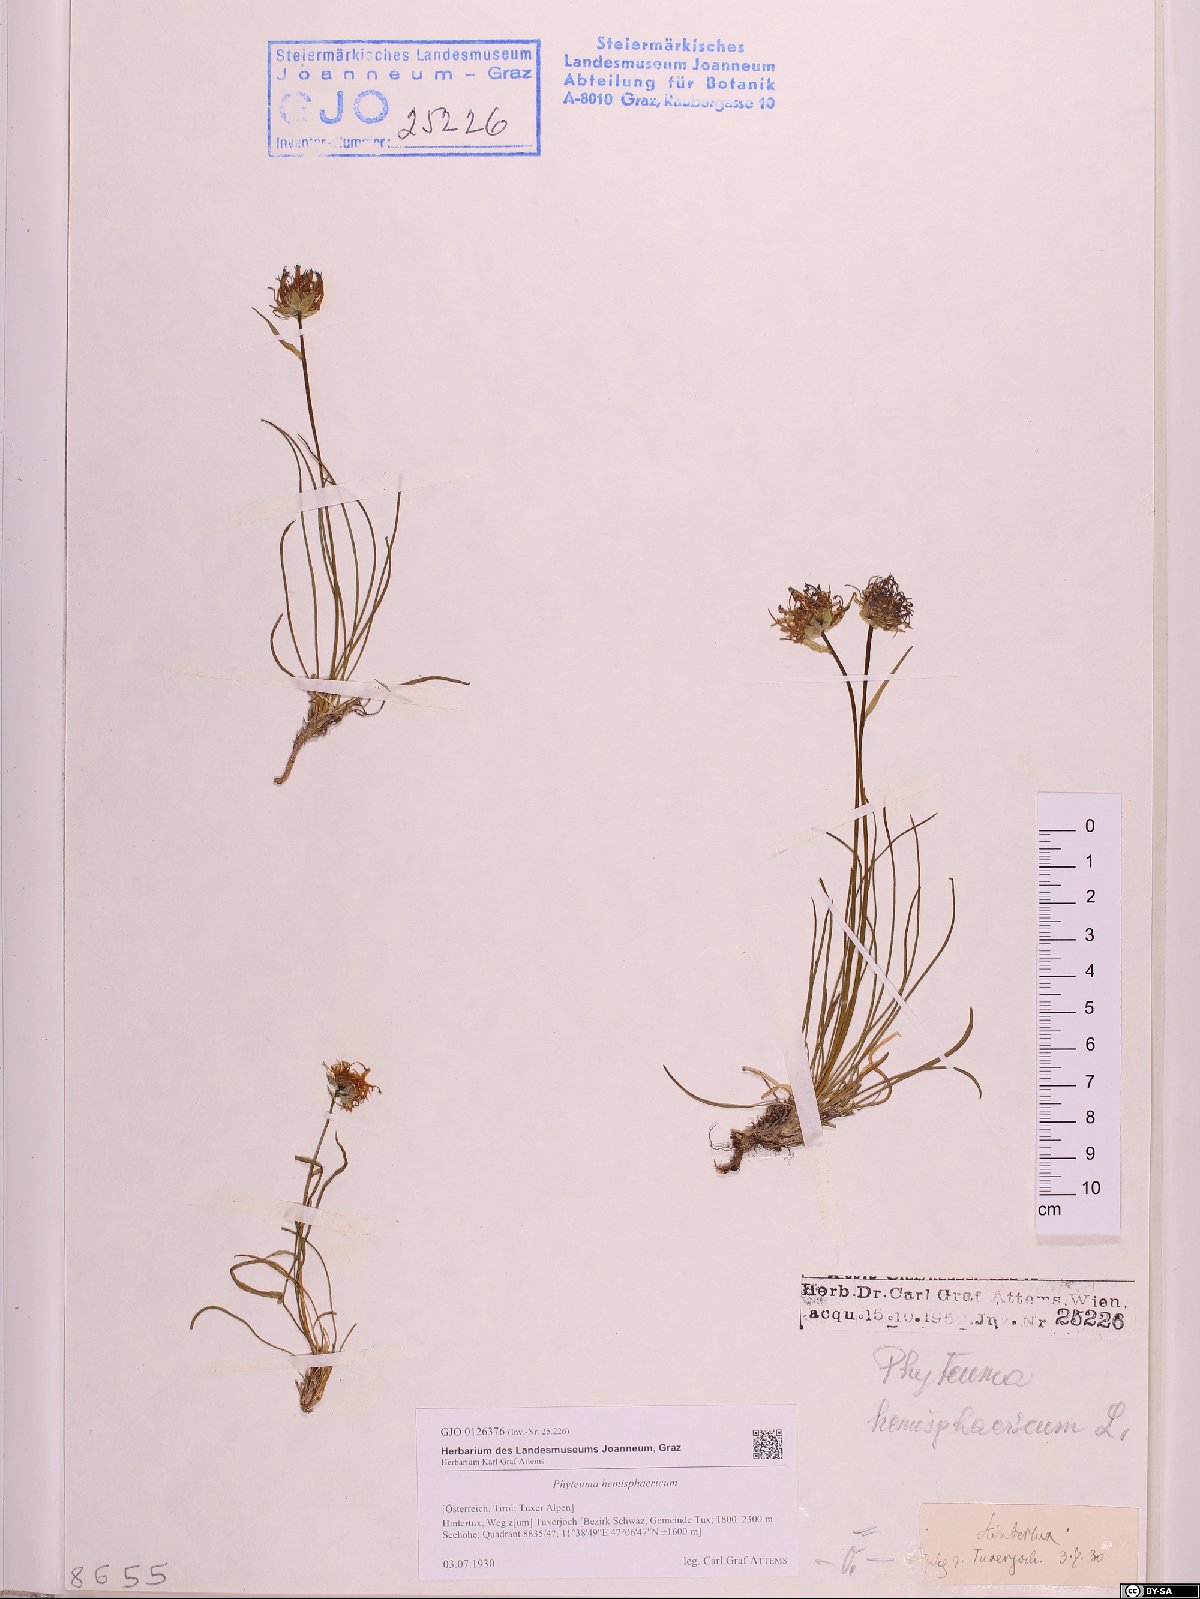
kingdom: Plantae
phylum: Tracheophyta
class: Magnoliopsida
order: Asterales
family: Campanulaceae
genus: Phyteuma
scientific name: Phyteuma hemisphaericum
